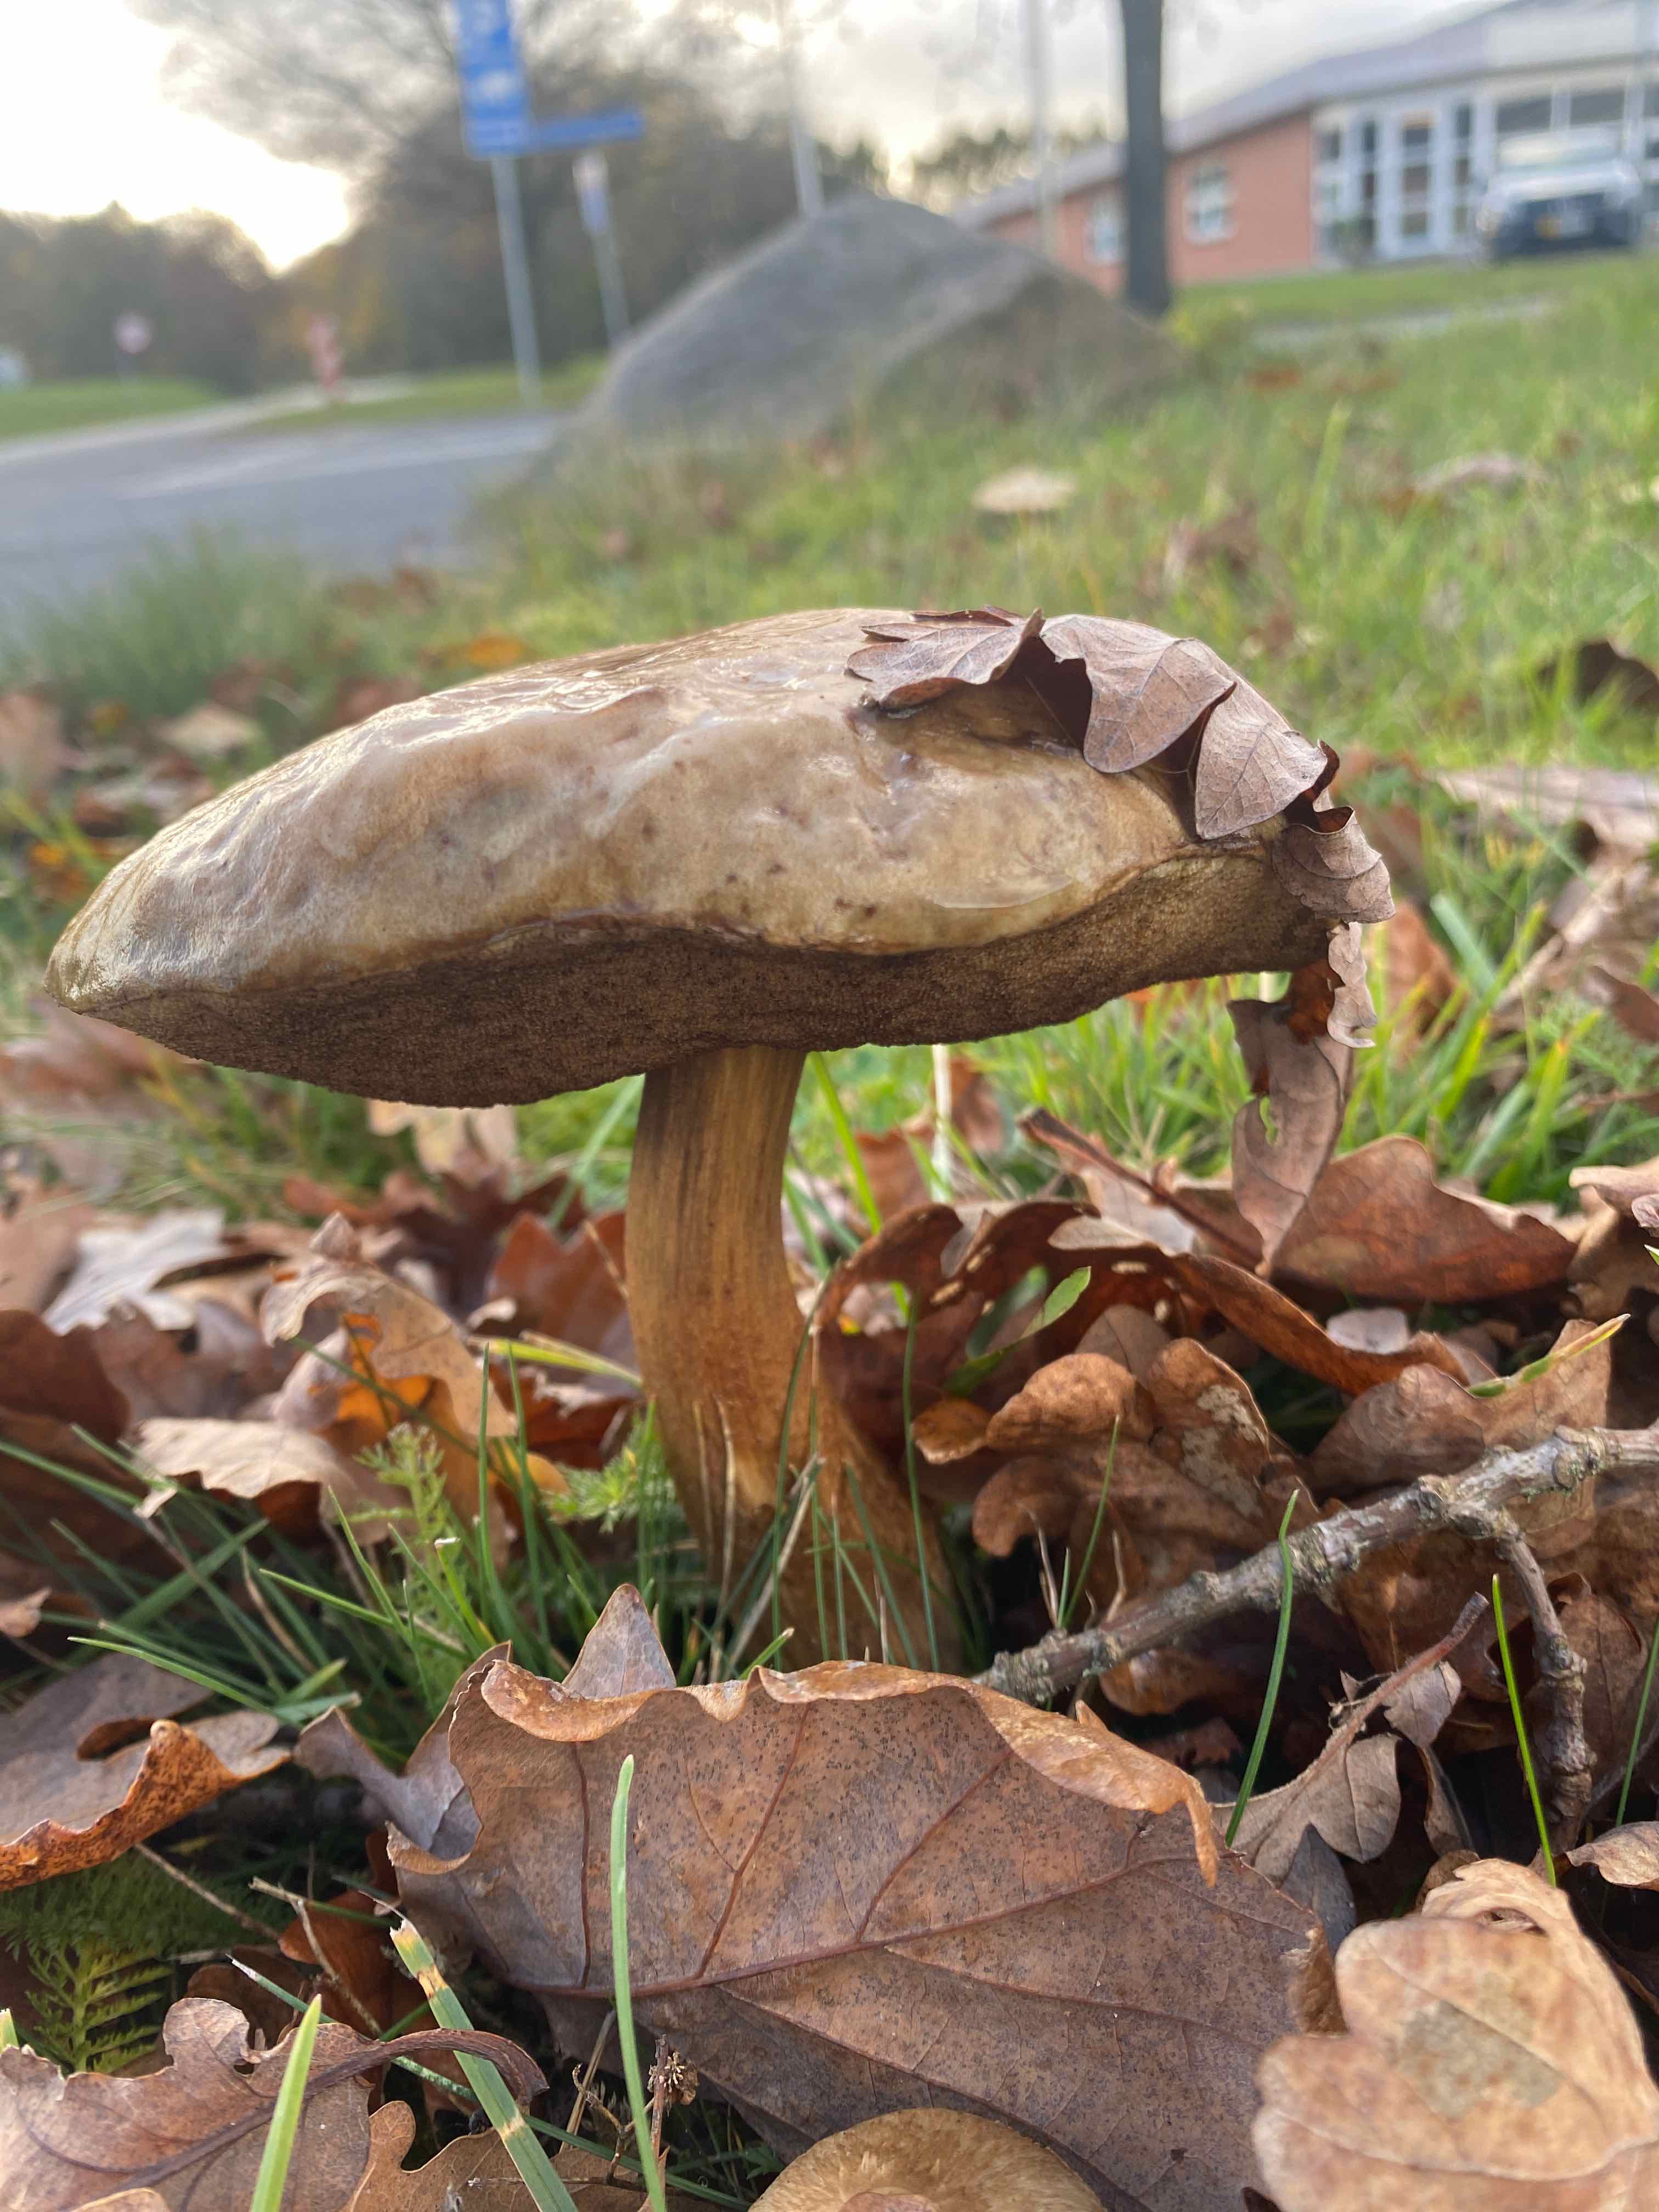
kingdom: Fungi
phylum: Basidiomycota
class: Agaricomycetes
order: Boletales
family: Boletaceae
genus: Leccinum
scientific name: Leccinum scabrum
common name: brun skælrørhat
